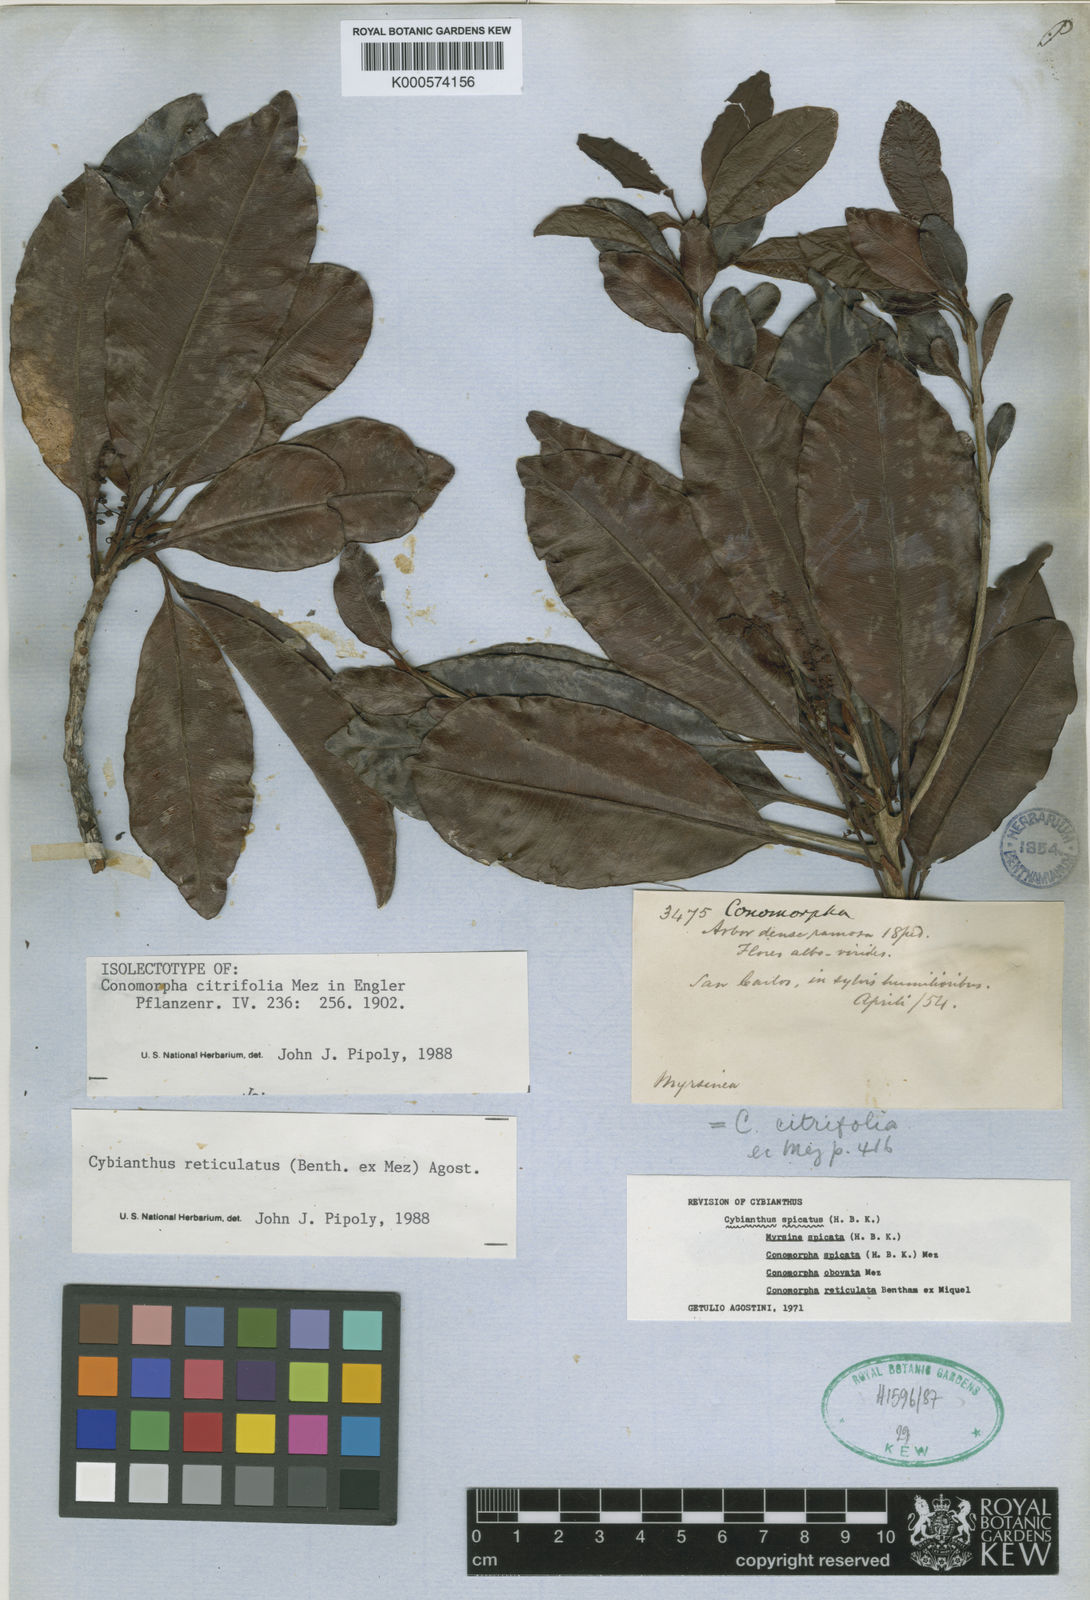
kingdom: Plantae
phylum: Tracheophyta
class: Magnoliopsida
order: Ericales
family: Primulaceae
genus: Cybianthus
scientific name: Cybianthus reticulatus
